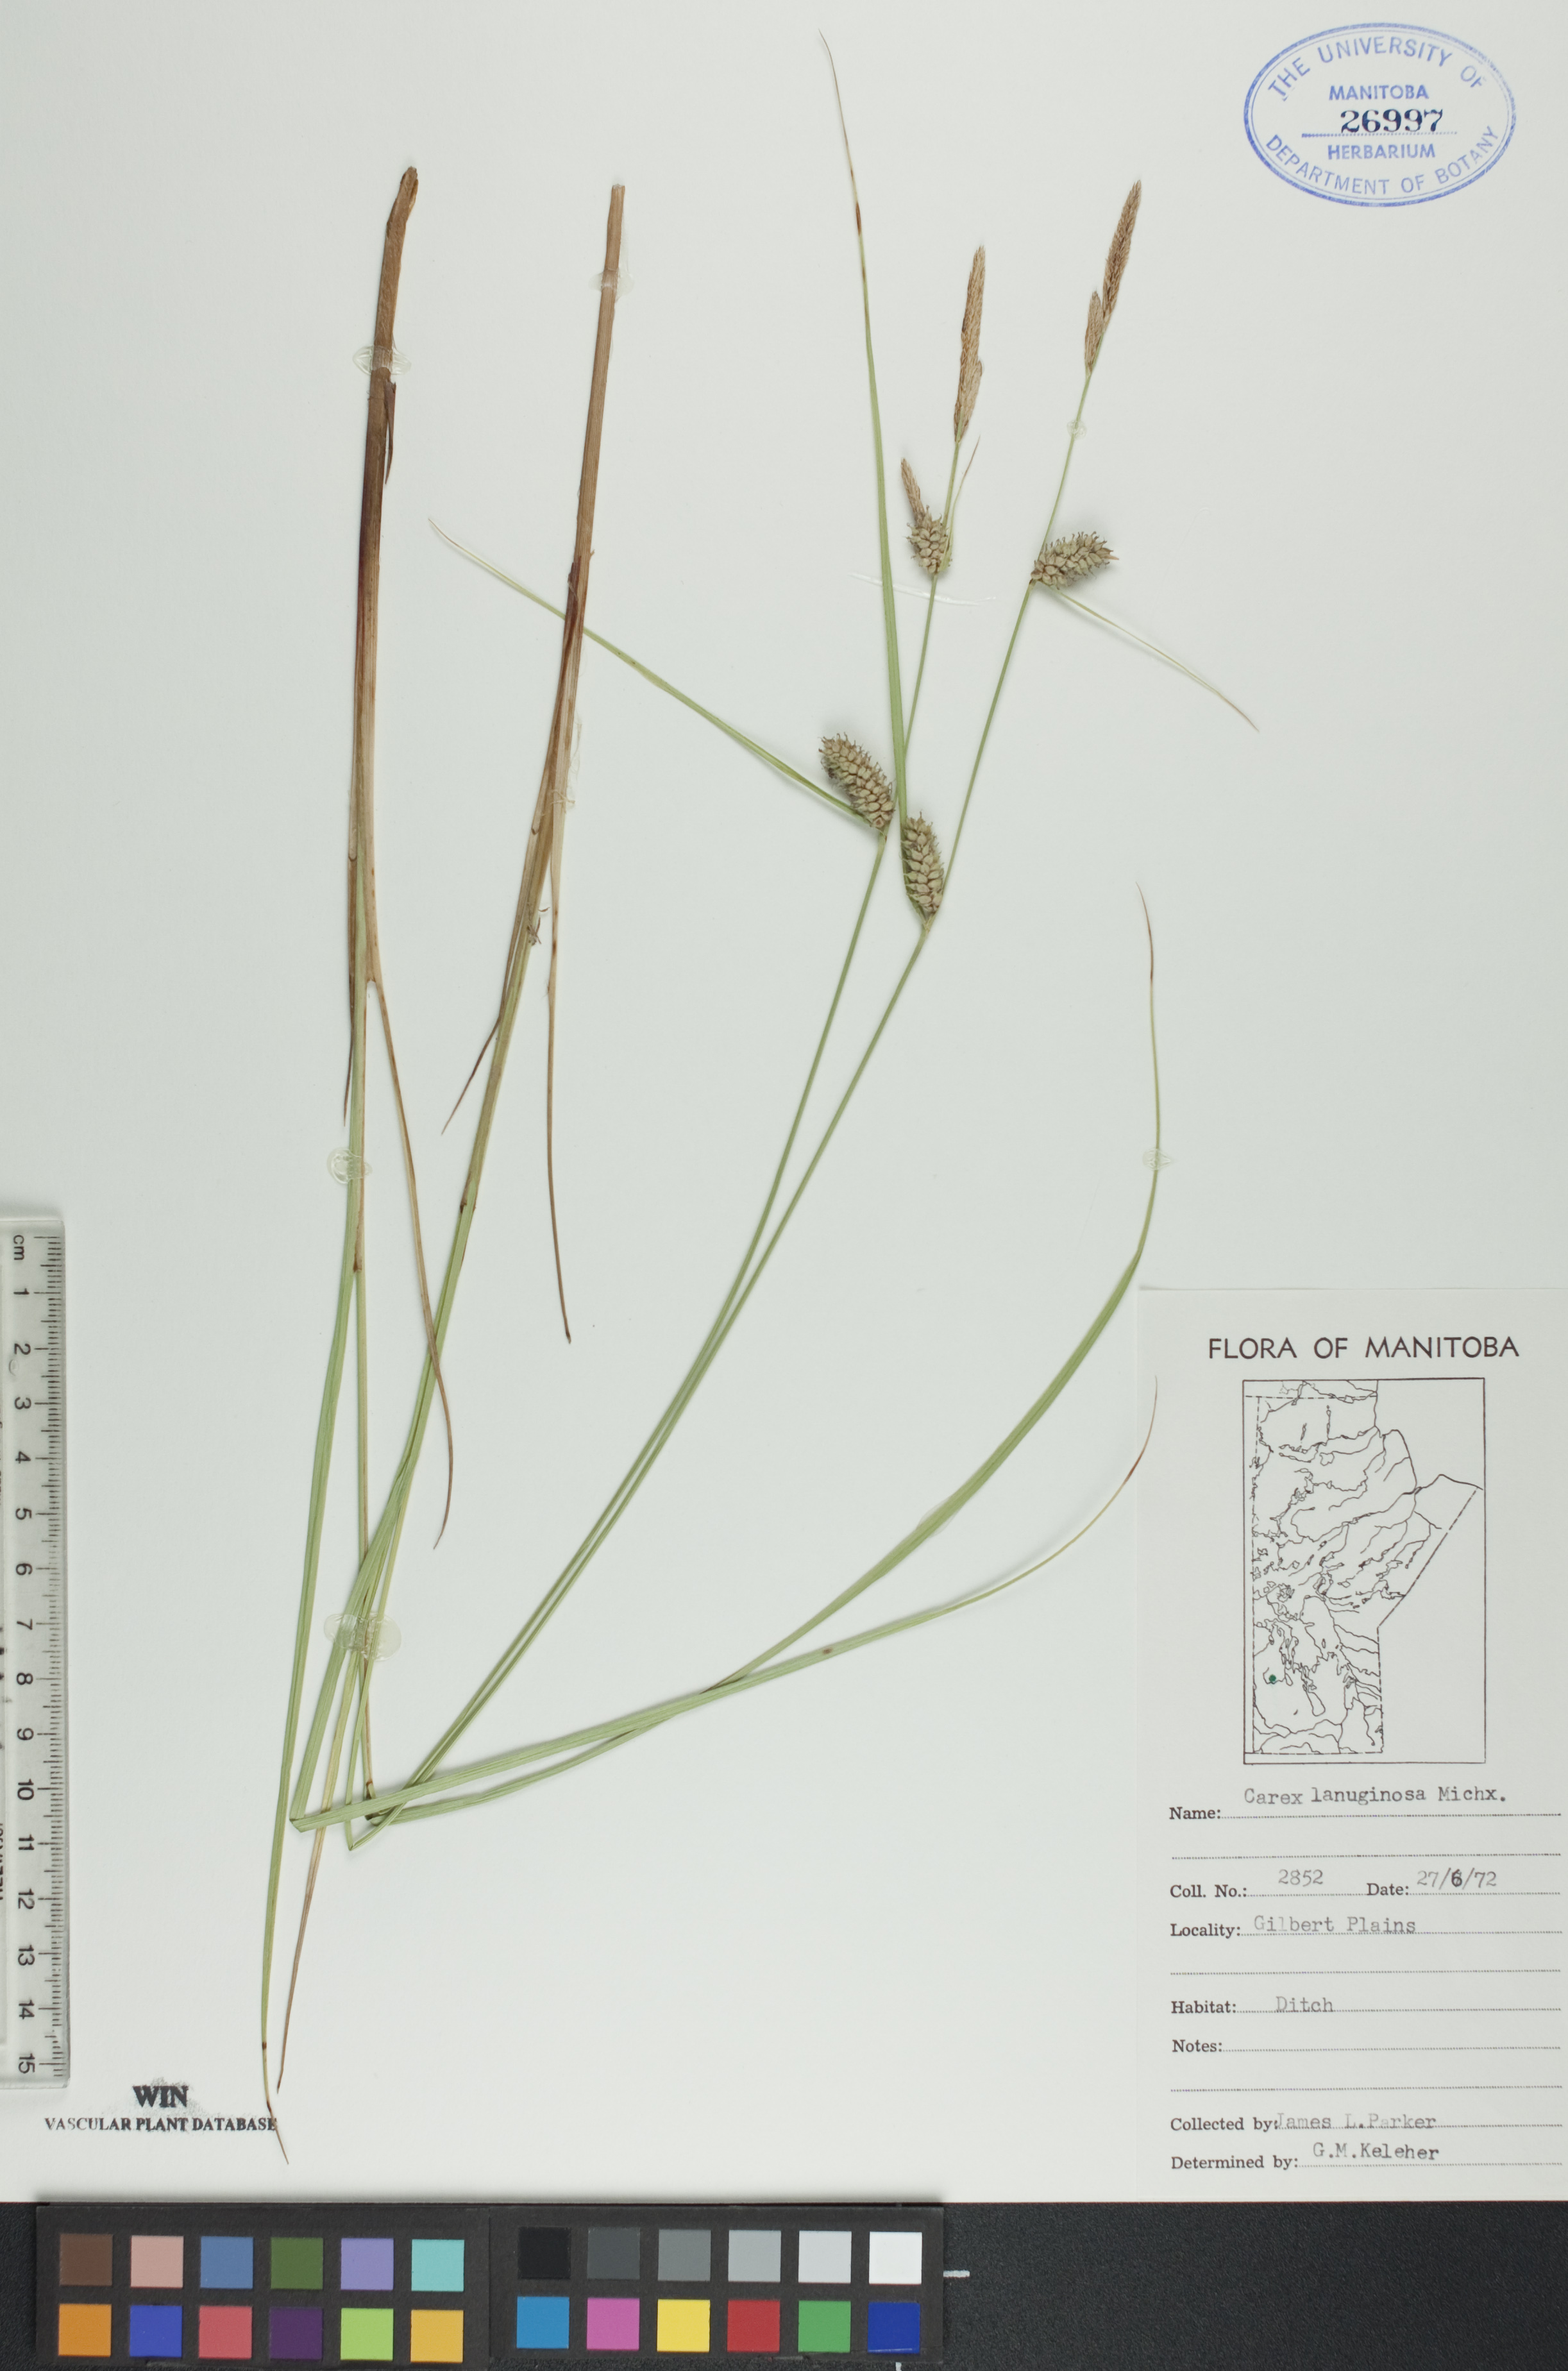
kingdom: Plantae
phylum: Tracheophyta
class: Liliopsida
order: Poales
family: Cyperaceae
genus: Carex
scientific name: Carex lasiocarpa
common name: Slender sedge
